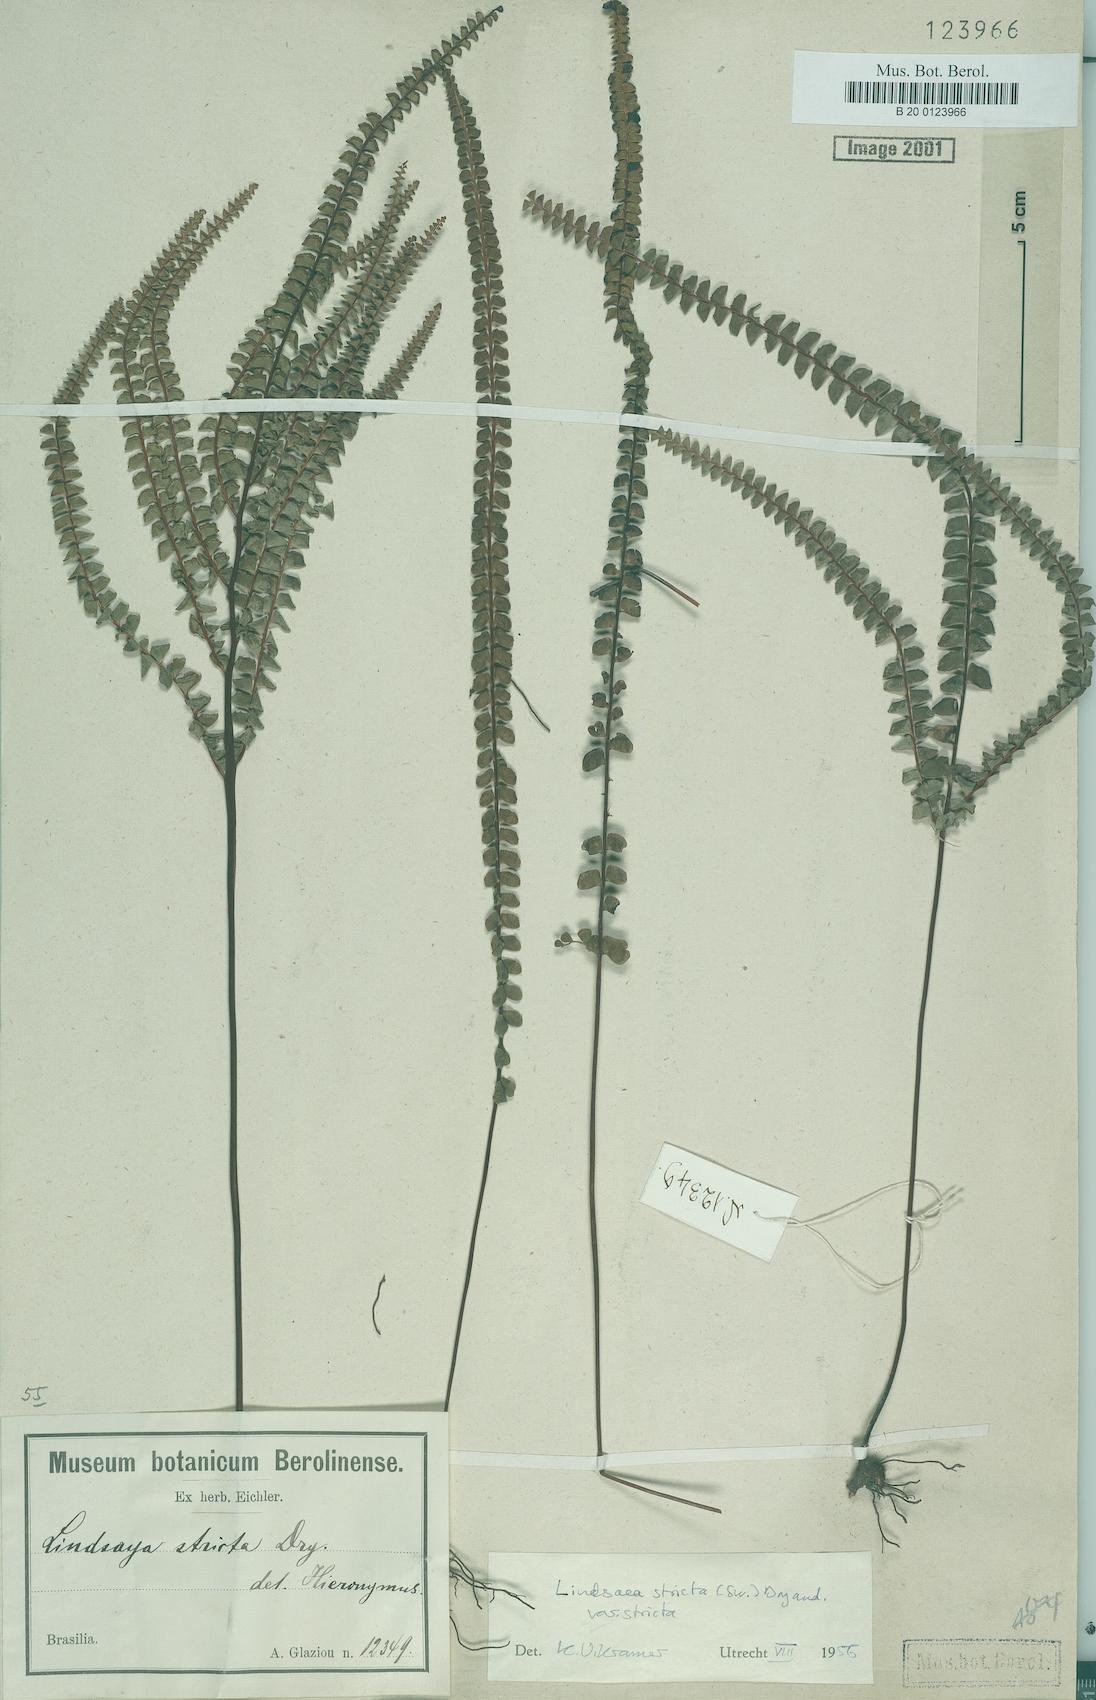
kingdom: Plantae
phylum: Tracheophyta
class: Polypodiopsida
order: Polypodiales
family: Lindsaeaceae
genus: Lindsaea
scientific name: Lindsaea stricta
